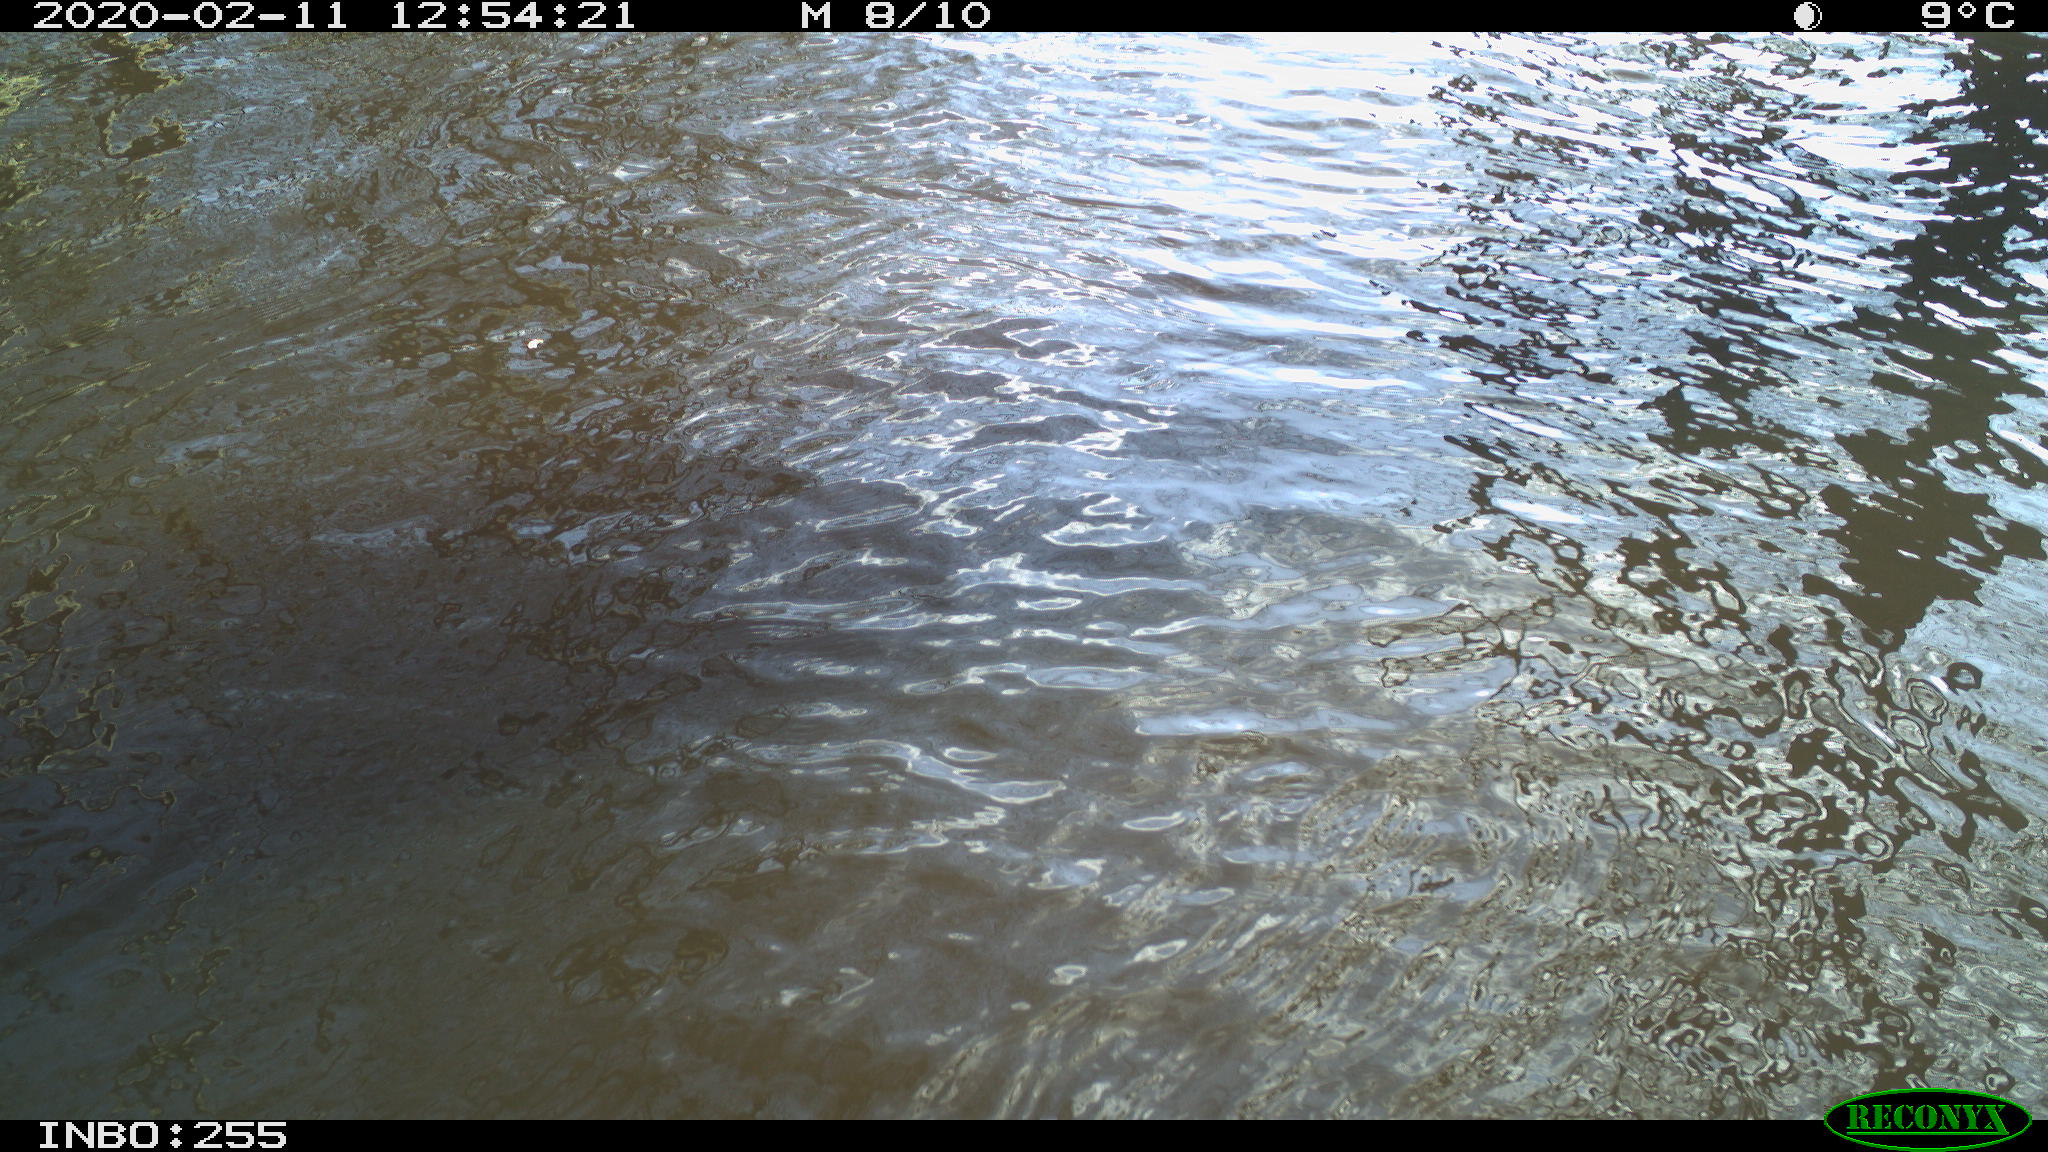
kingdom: Animalia
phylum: Chordata
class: Aves
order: Gruiformes
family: Rallidae
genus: Fulica
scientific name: Fulica atra
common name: Eurasian coot
